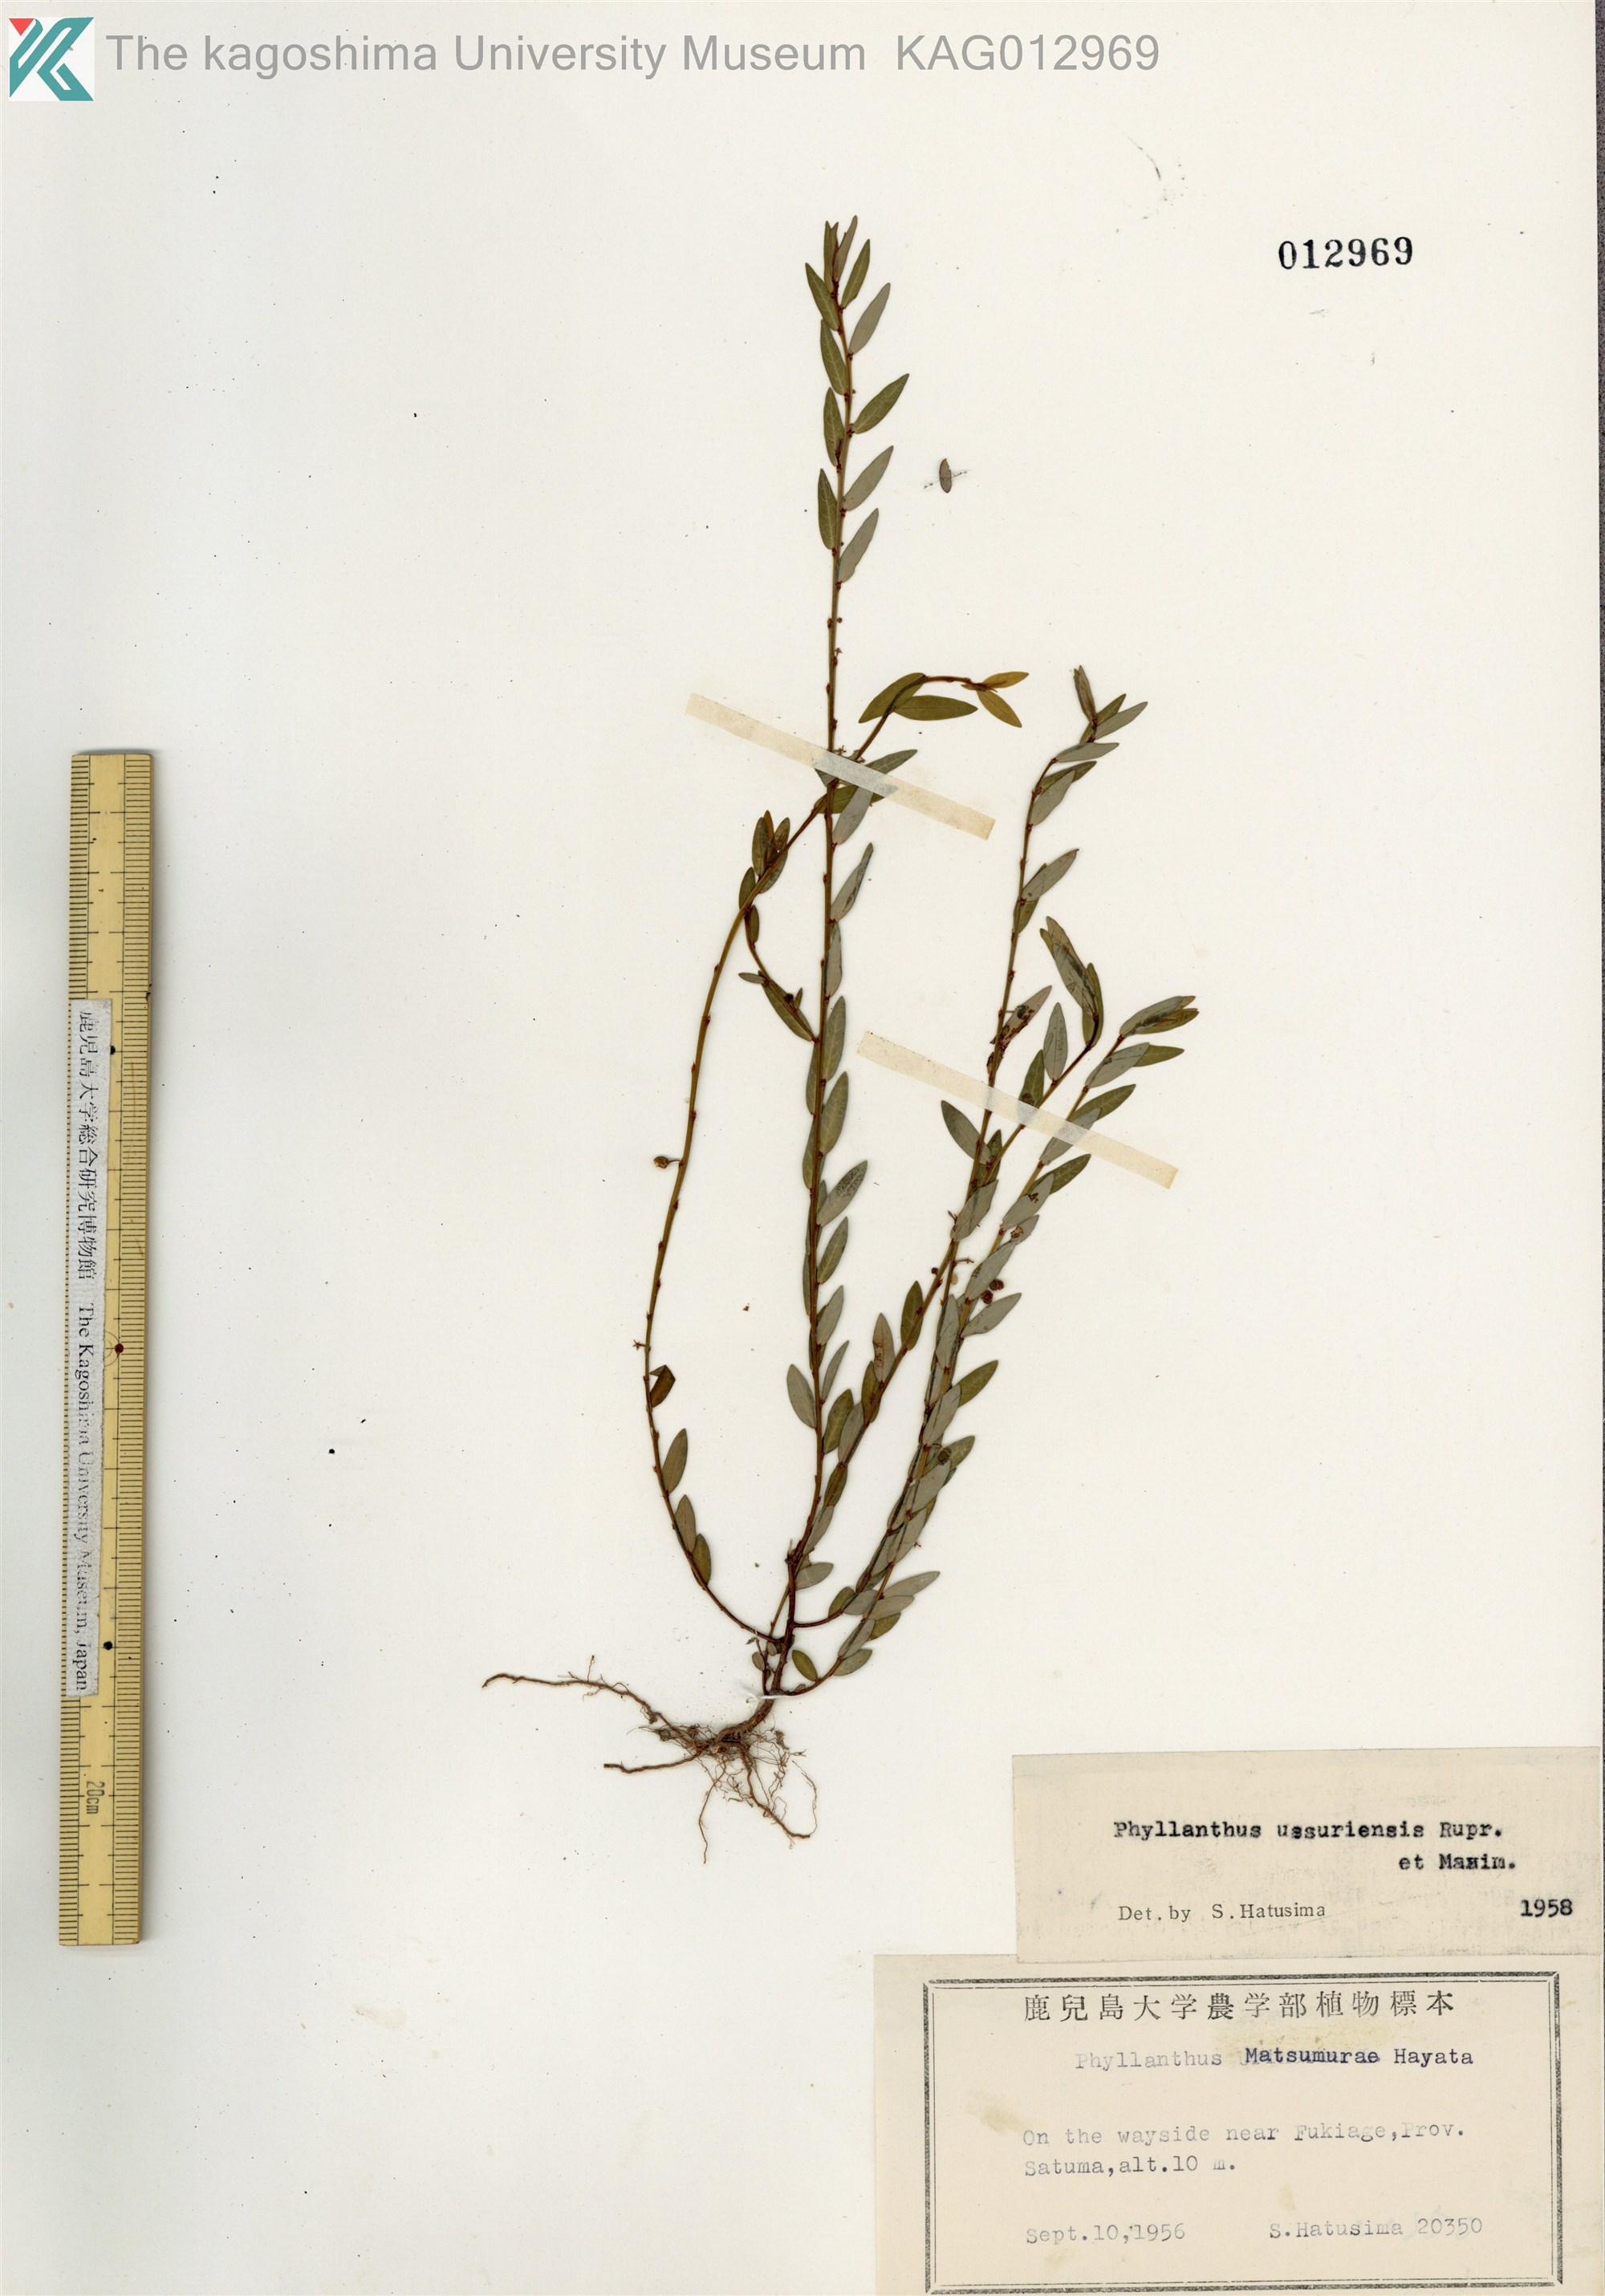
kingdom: Plantae
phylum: Tracheophyta
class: Magnoliopsida
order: Malpighiales
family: Phyllanthaceae
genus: Phyllanthus
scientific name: Phyllanthus ussuriensis
